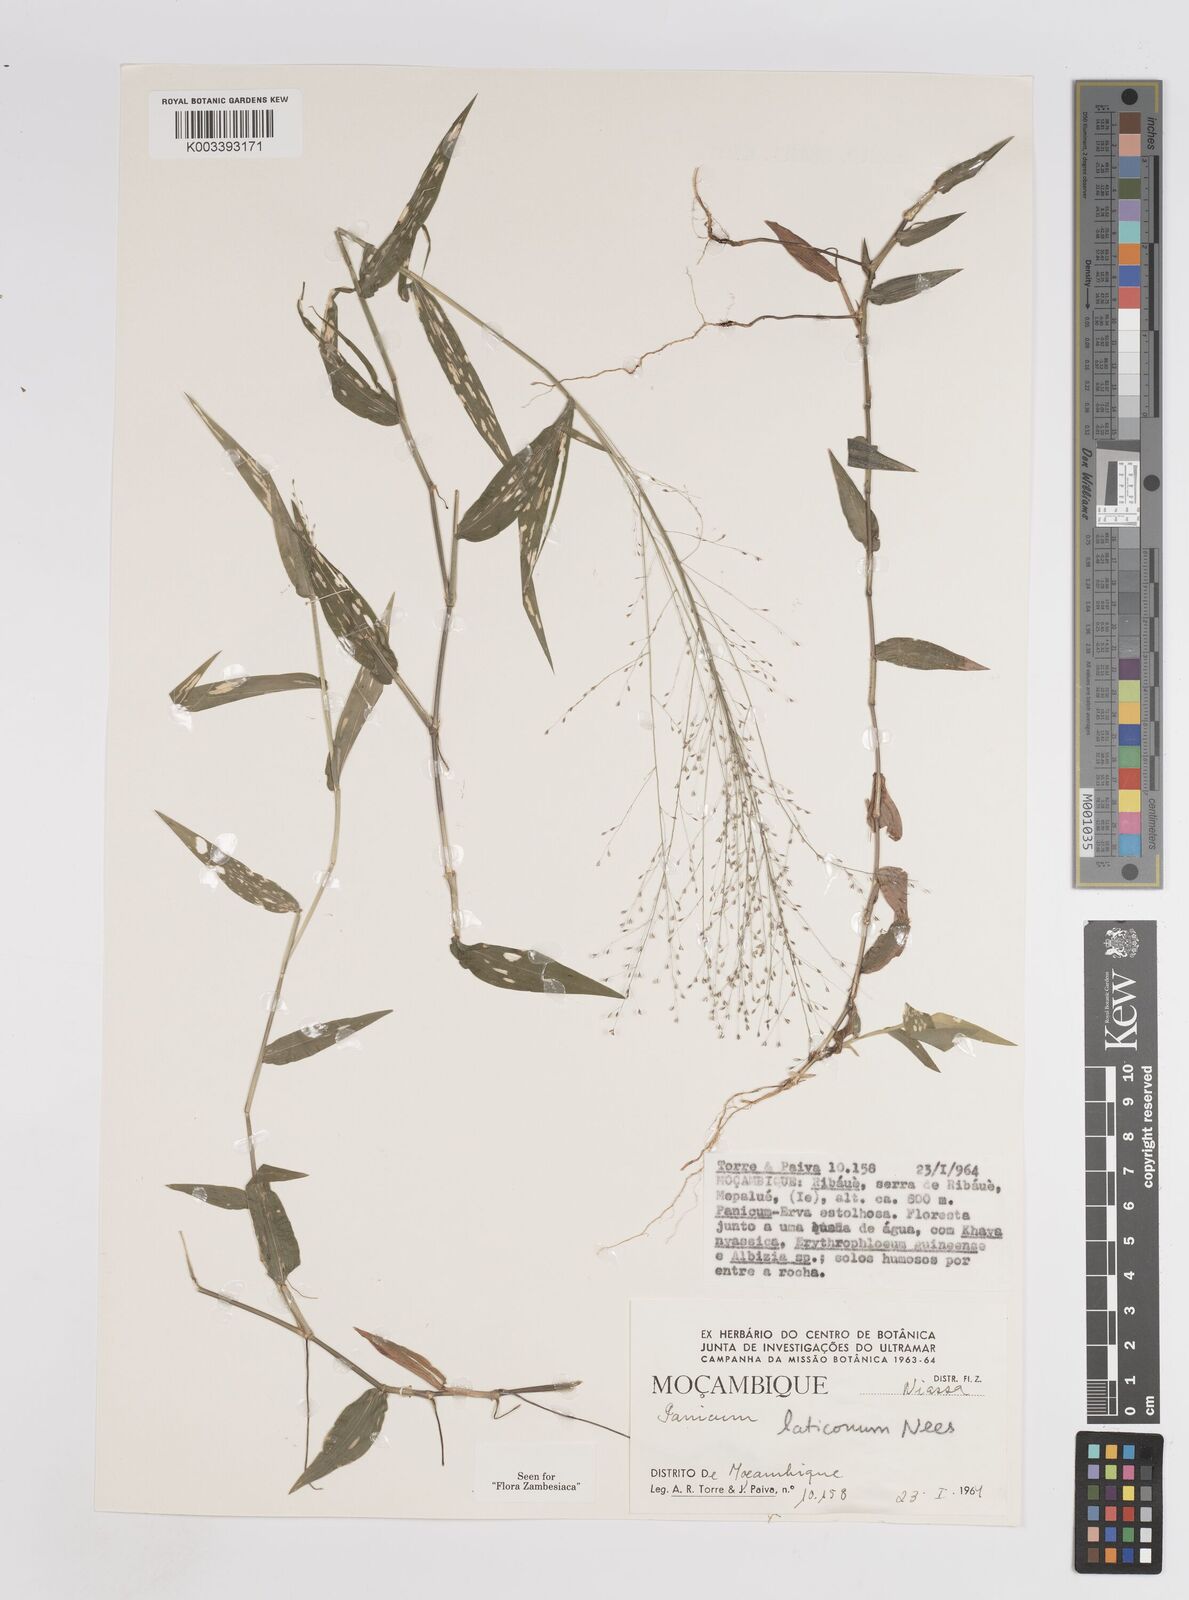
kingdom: Plantae
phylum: Tracheophyta
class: Liliopsida
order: Poales
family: Poaceae
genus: Panicum
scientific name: Panicum laticomum
